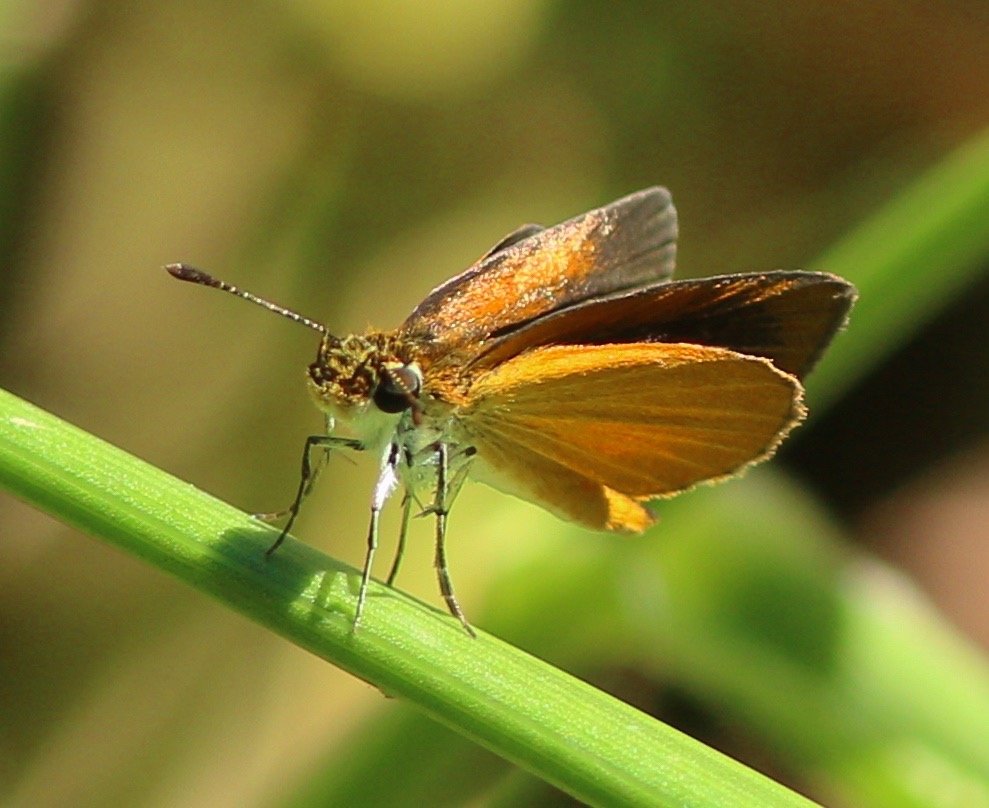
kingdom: Animalia
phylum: Arthropoda
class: Insecta
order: Lepidoptera
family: Hesperiidae
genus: Ancyloxypha
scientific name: Ancyloxypha numitor
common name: Least Skipper
